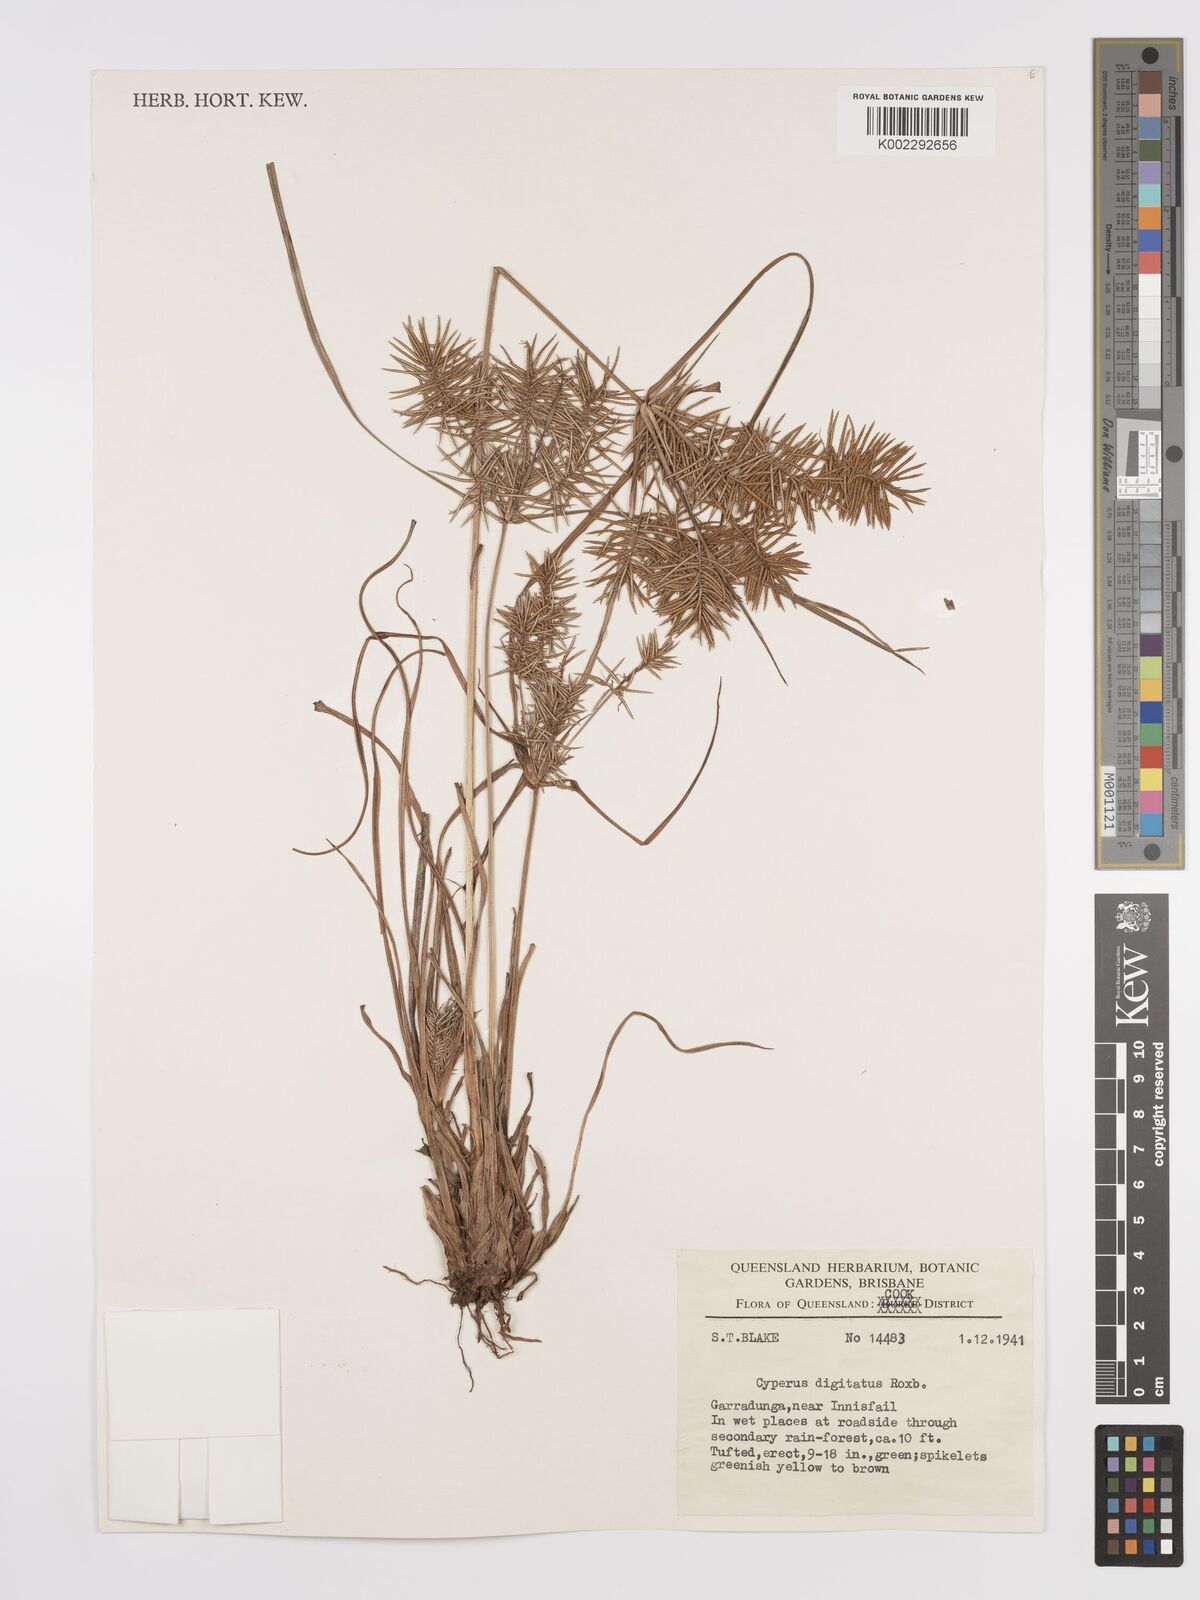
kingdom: Plantae
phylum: Tracheophyta
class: Liliopsida
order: Poales
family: Cyperaceae
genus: Cyperus
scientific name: Cyperus digitatus
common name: Finger flatsedge
